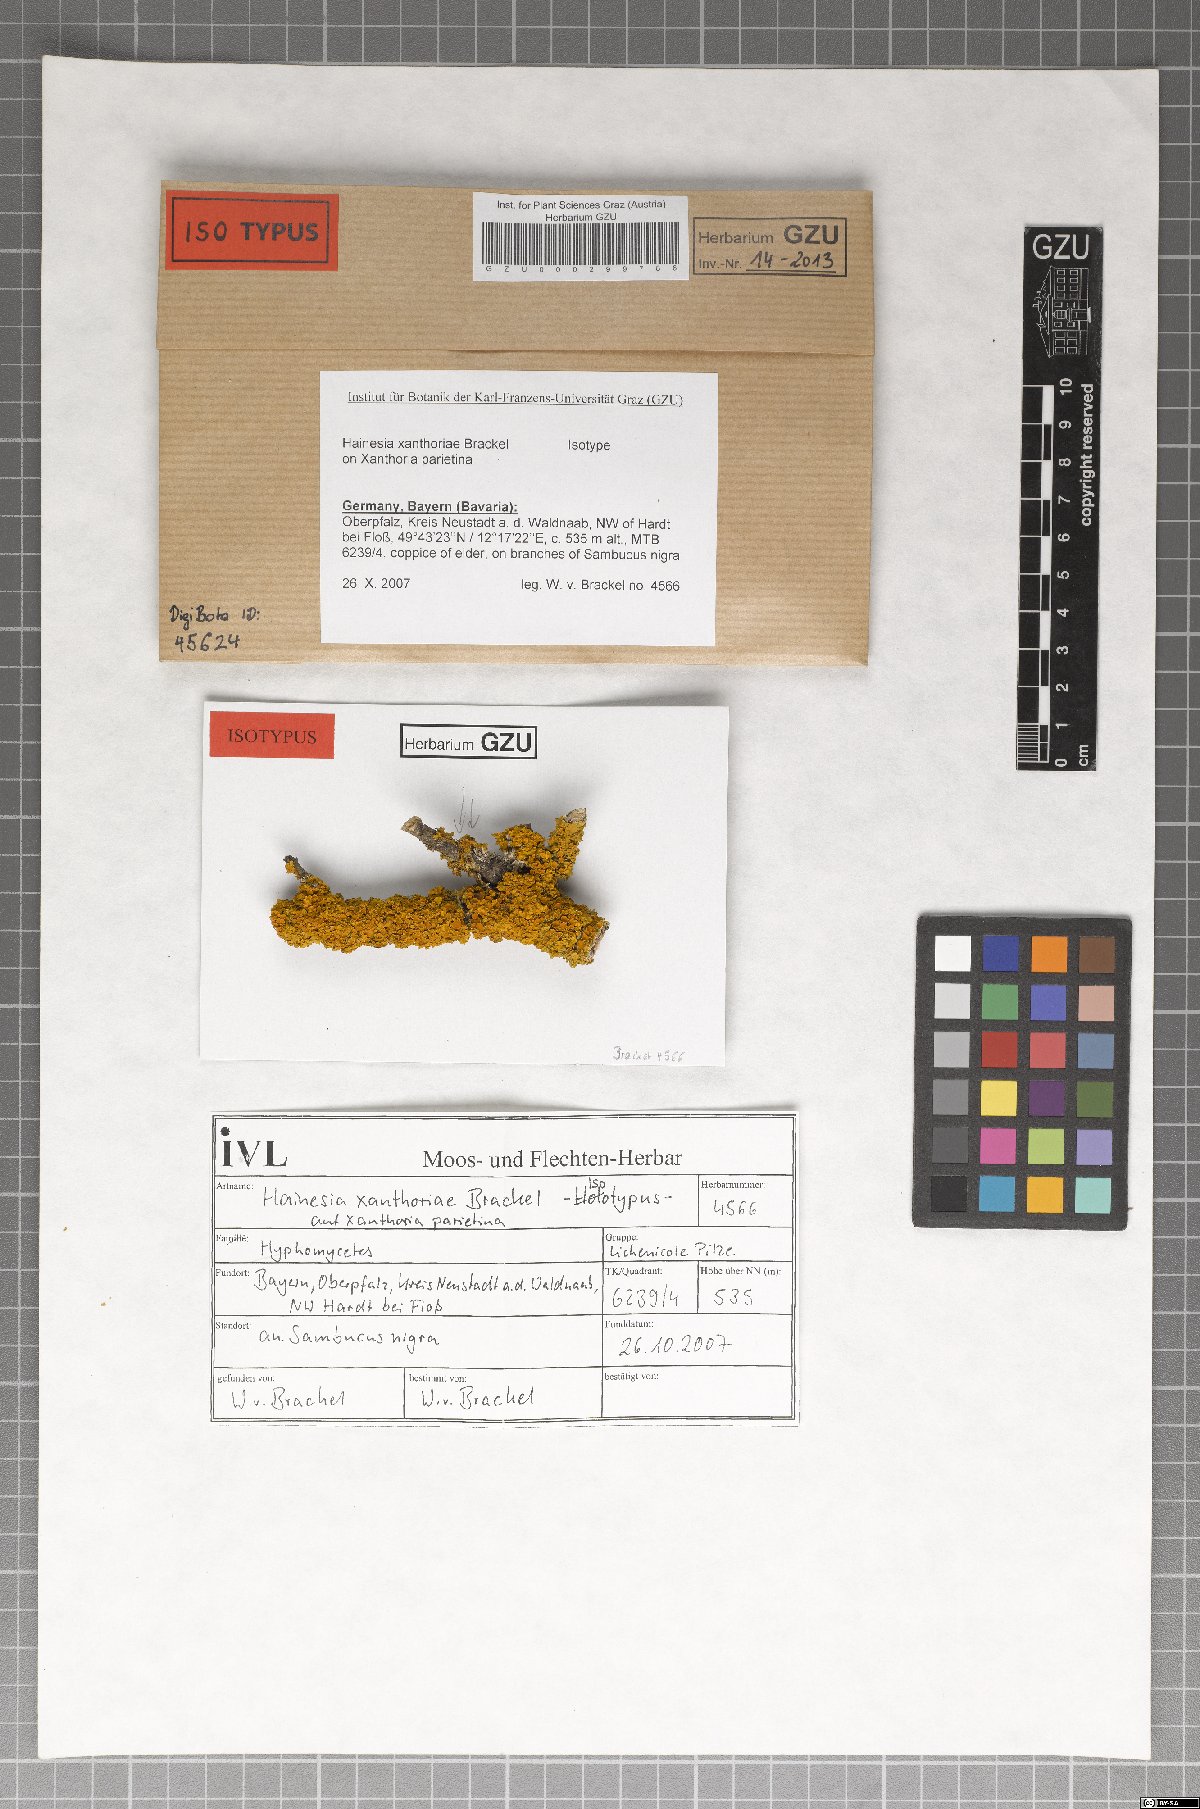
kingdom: Fungi
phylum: Ascomycota
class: Leotiomycetes
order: Leotiales
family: Mniaeciaceae
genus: Epithamnolia
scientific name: Epithamnolia xanthoriae
